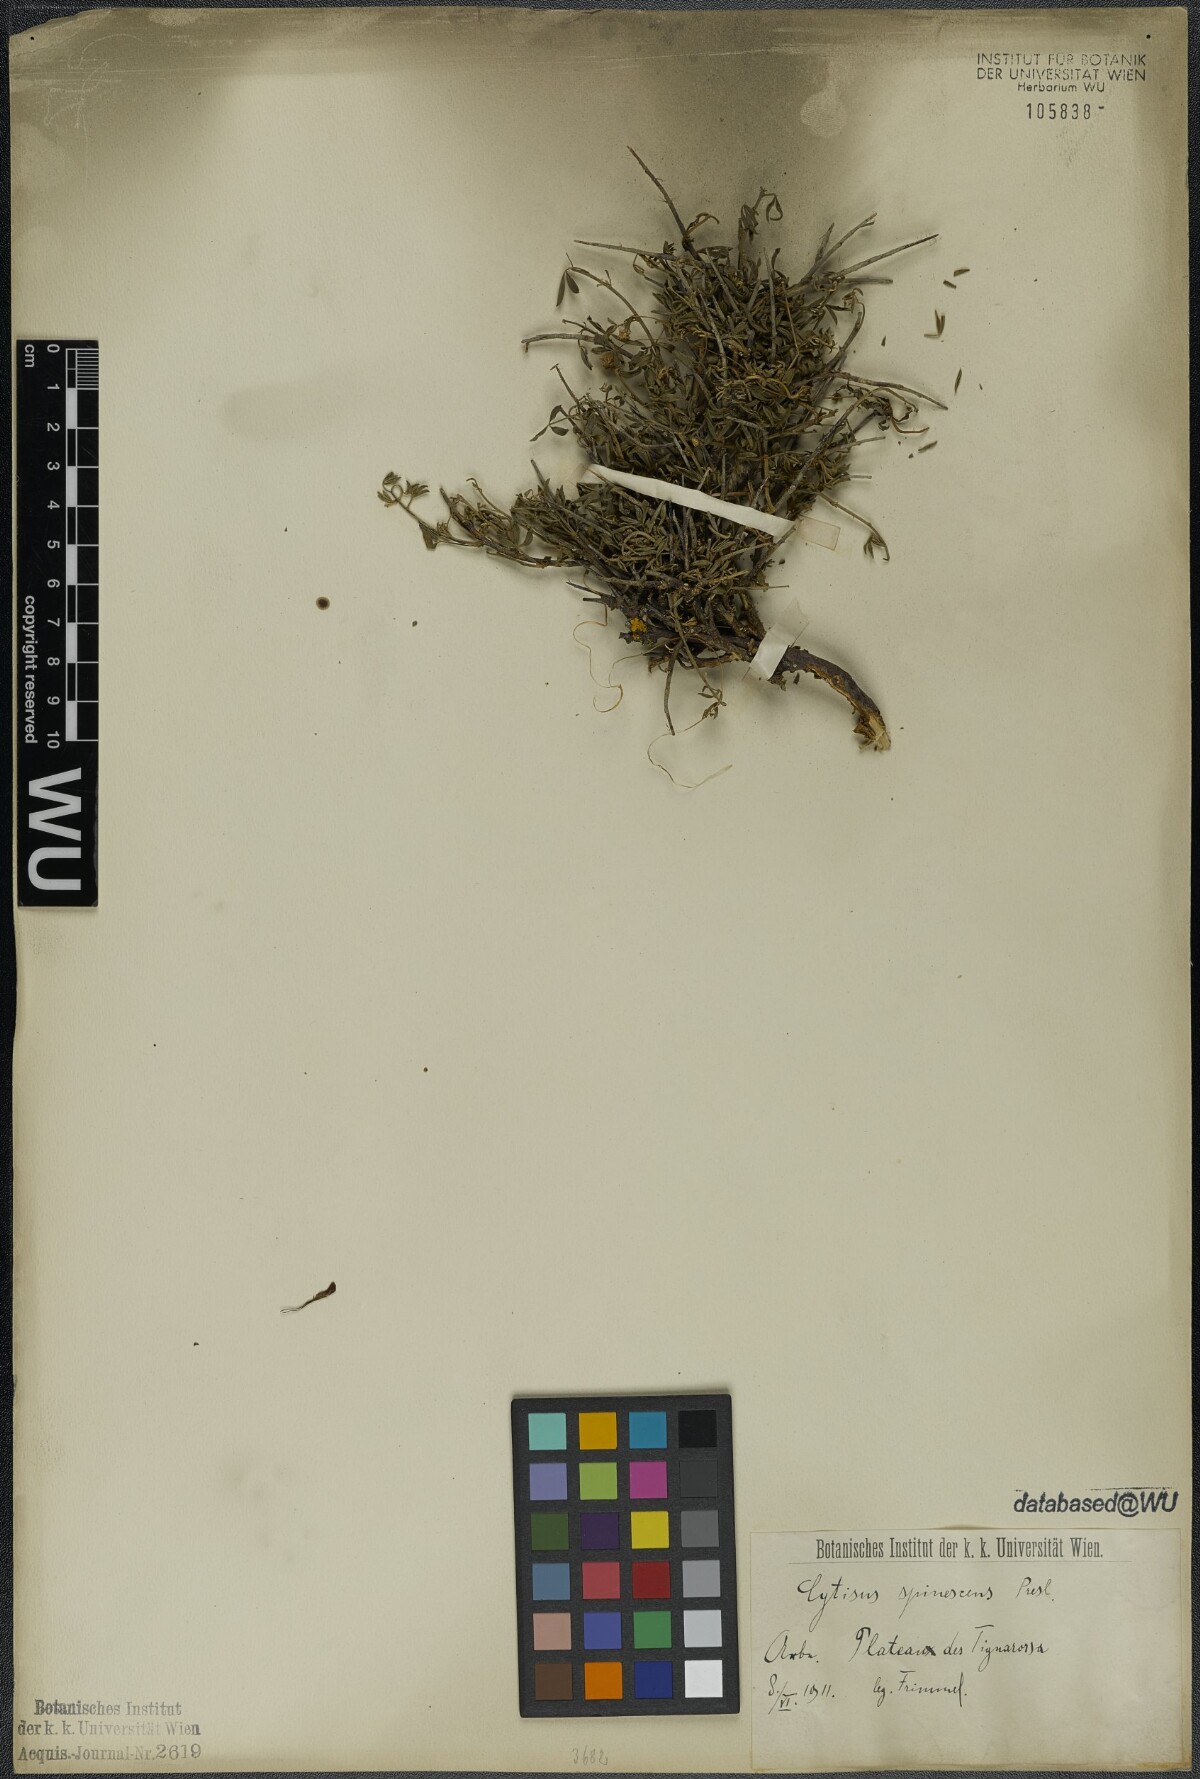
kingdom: Plantae
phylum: Tracheophyta
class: Magnoliopsida
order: Fabales
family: Fabaceae
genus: Chamaecytisus
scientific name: Chamaecytisus spinescens
